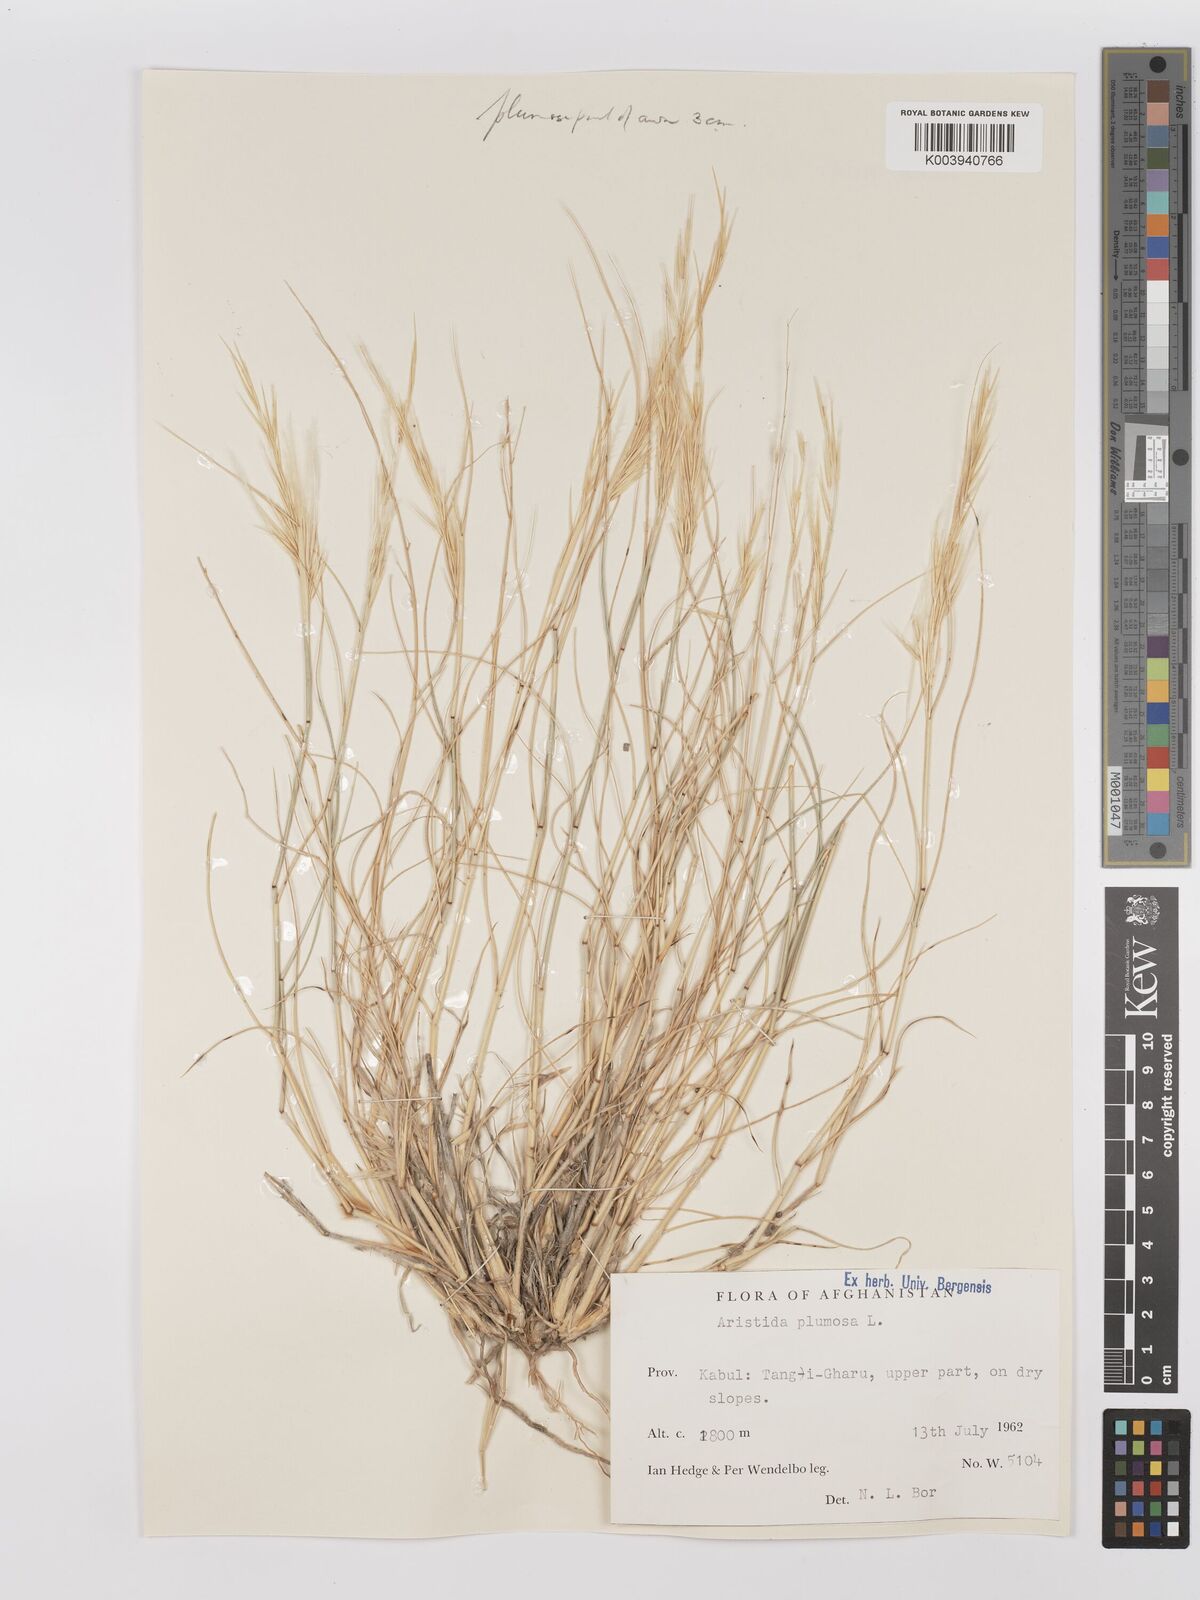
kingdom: Plantae
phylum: Tracheophyta
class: Liliopsida
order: Poales
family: Poaceae
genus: Stipagrostis
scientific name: Stipagrostis plumosa
